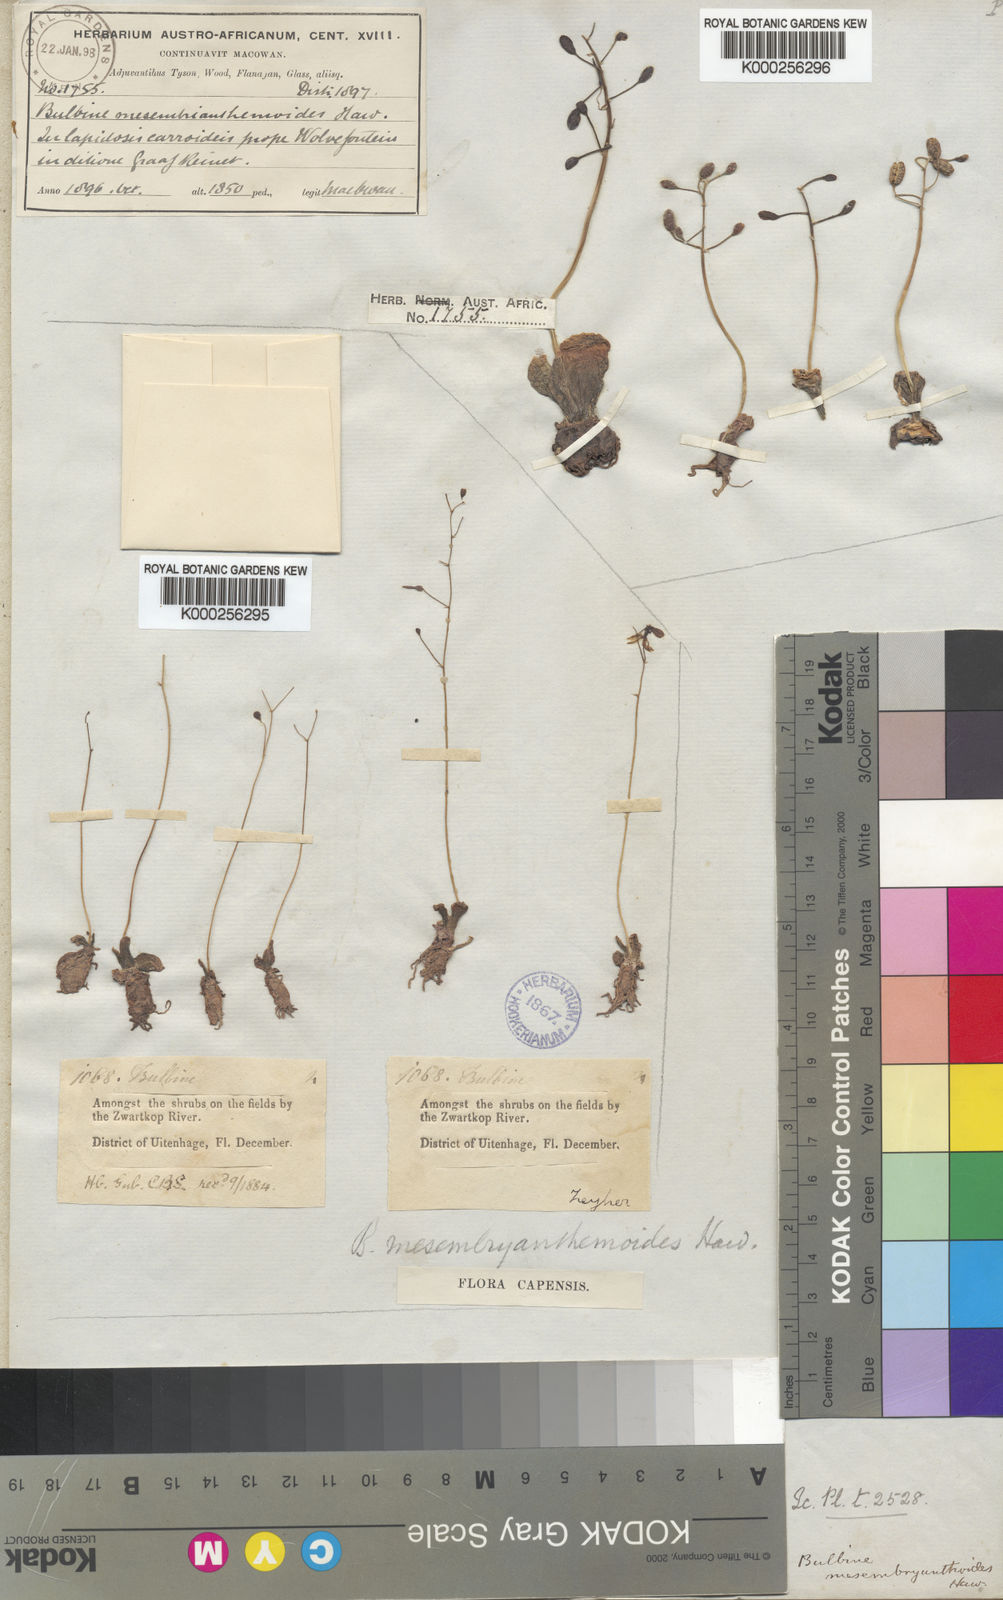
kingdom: Plantae
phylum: Tracheophyta
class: Liliopsida
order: Asparagales
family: Asphodelaceae
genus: Bulbine
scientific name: Bulbine mesembryanthemoides
